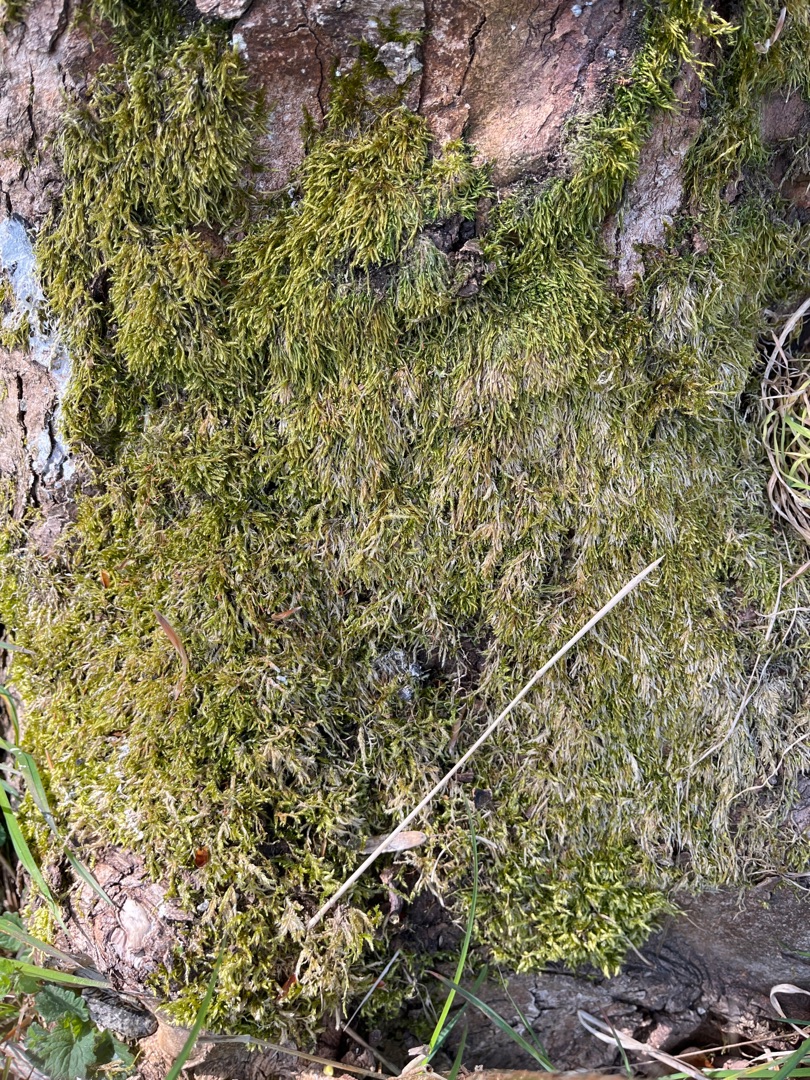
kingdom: Plantae
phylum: Bryophyta
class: Bryopsida
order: Hypnales
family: Hypnaceae
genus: Hypnum
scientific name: Hypnum
